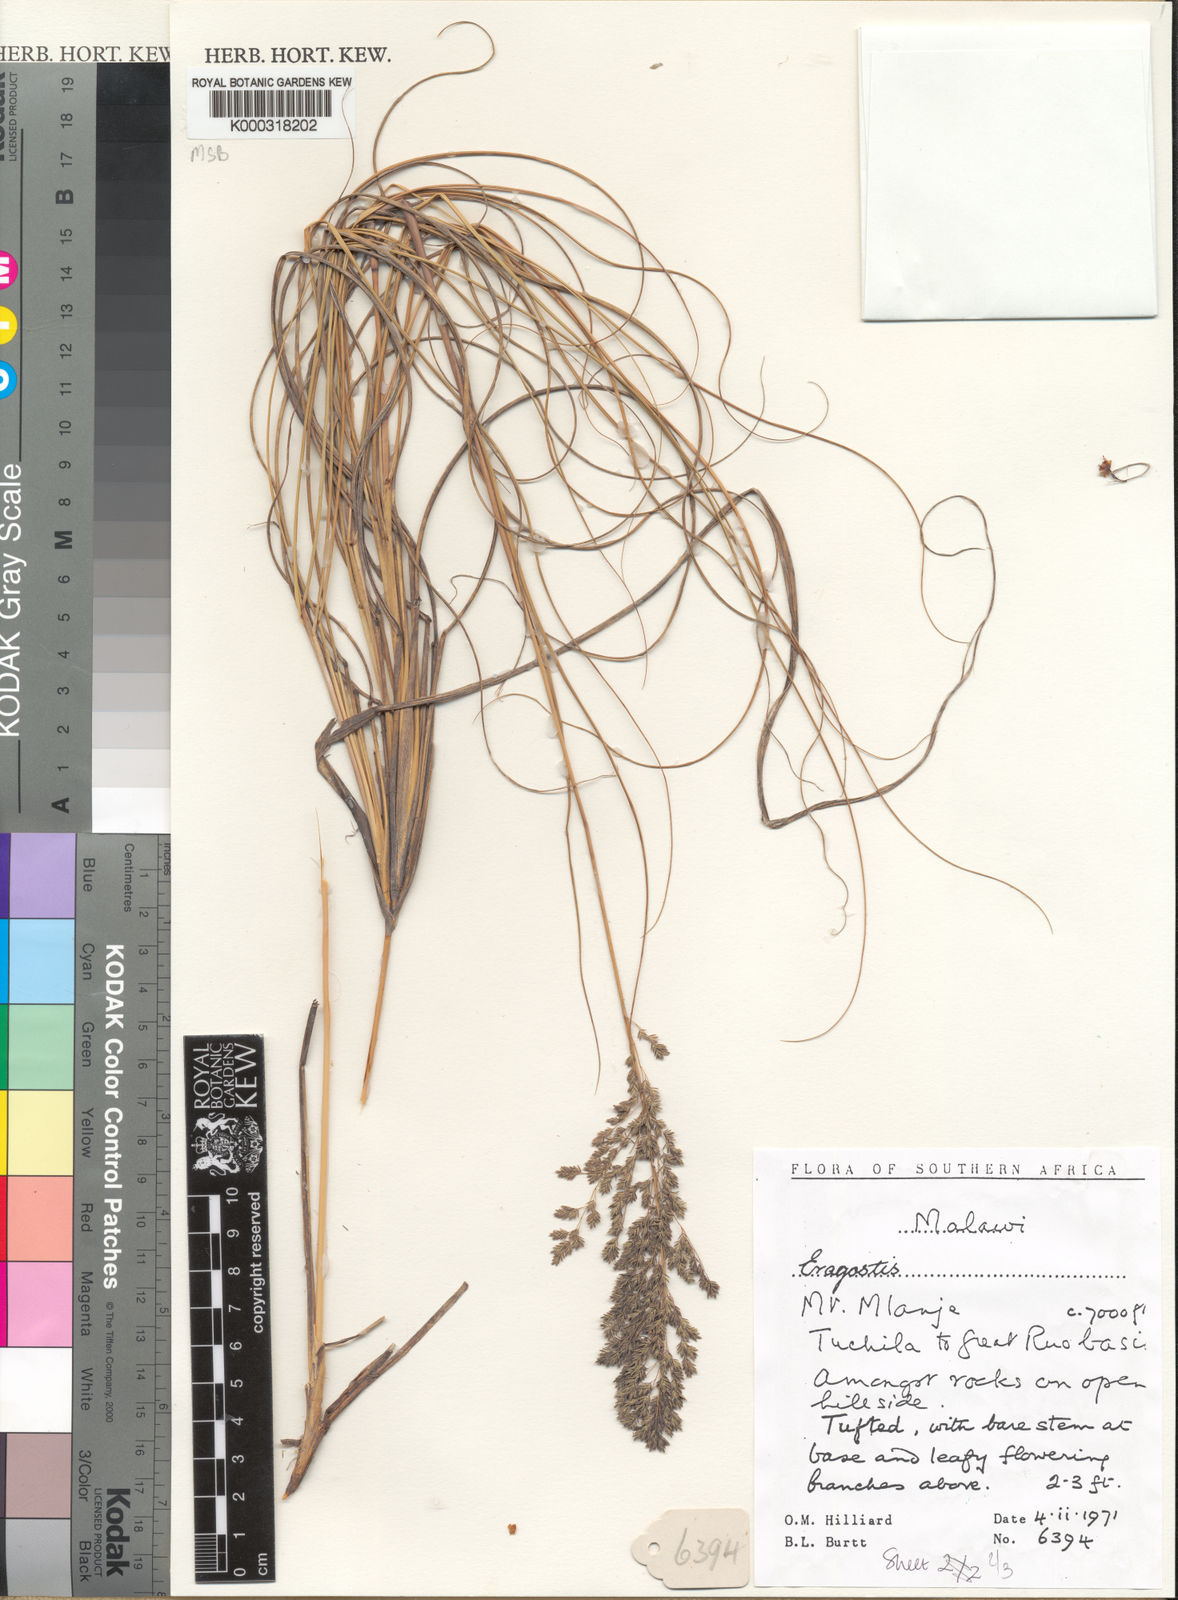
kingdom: Plantae
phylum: Tracheophyta
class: Liliopsida
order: Poales
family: Poaceae
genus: Eragrostis
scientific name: Eragrostis fastigiata
